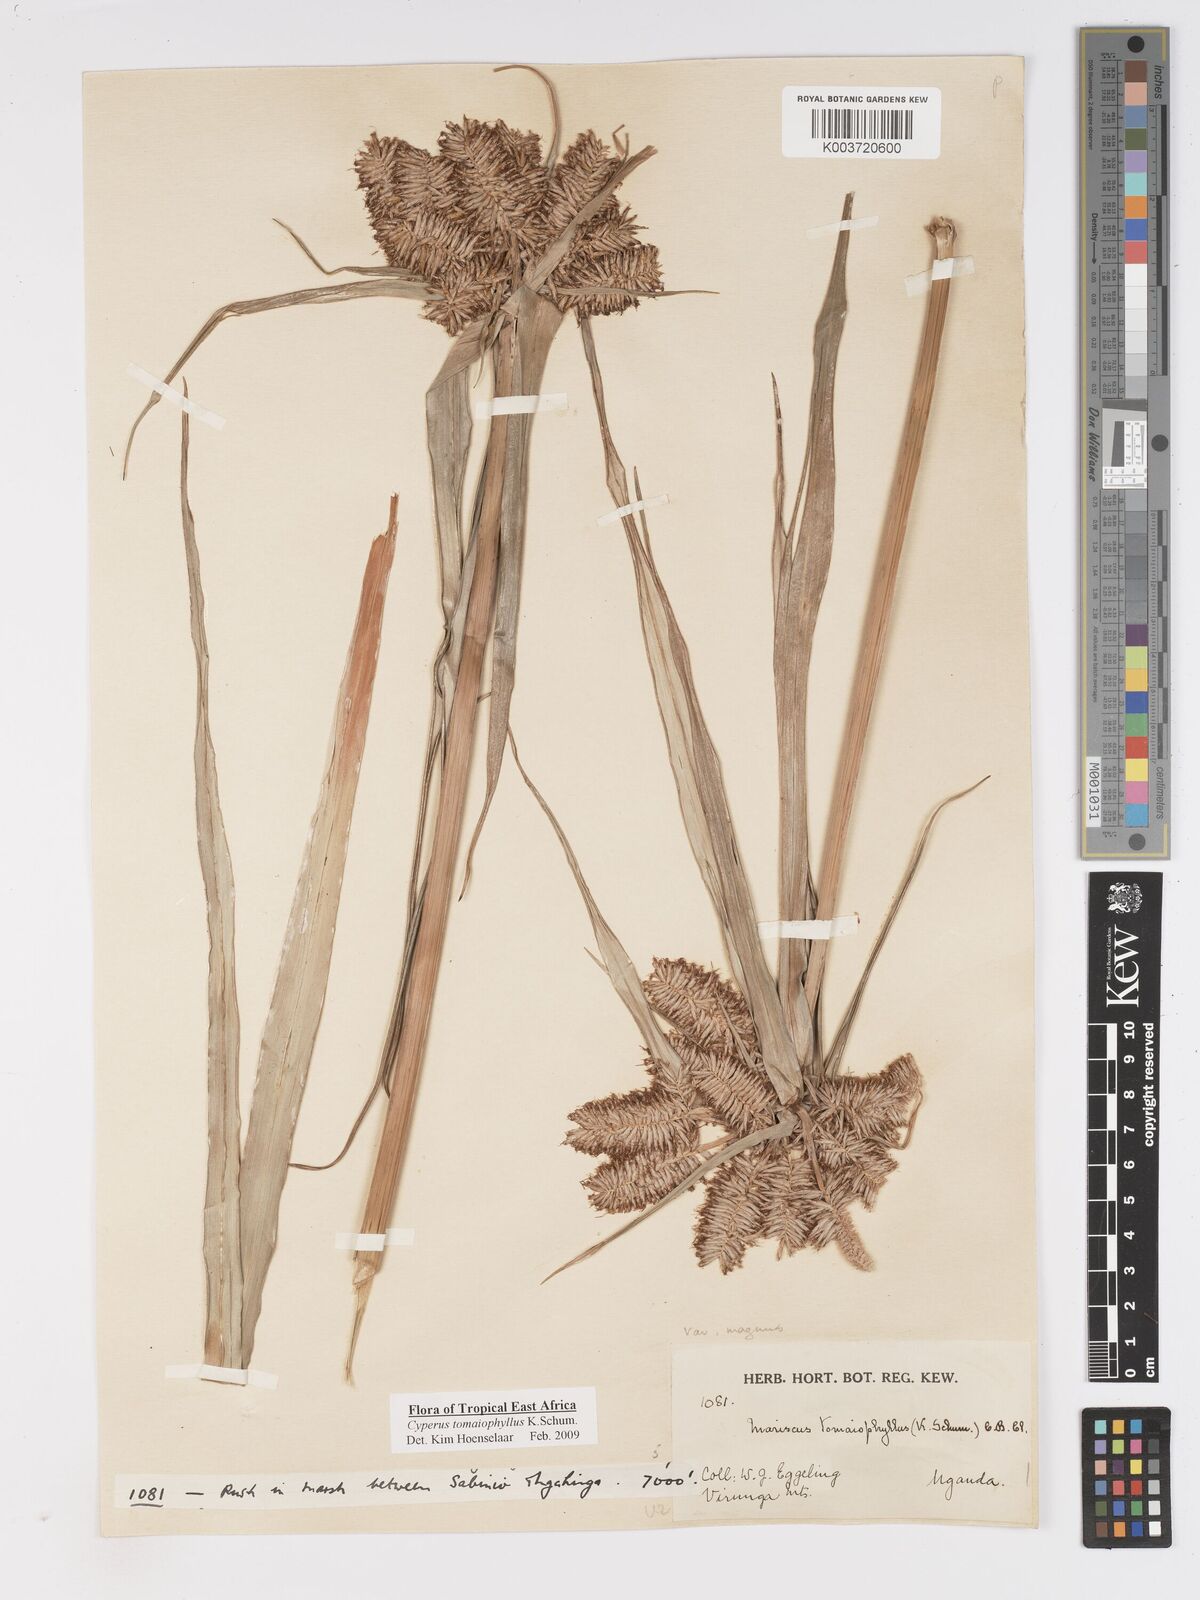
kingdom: Plantae
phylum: Tracheophyta
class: Liliopsida
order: Poales
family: Cyperaceae
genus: Cyperus
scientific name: Cyperus tomaiophyllus
